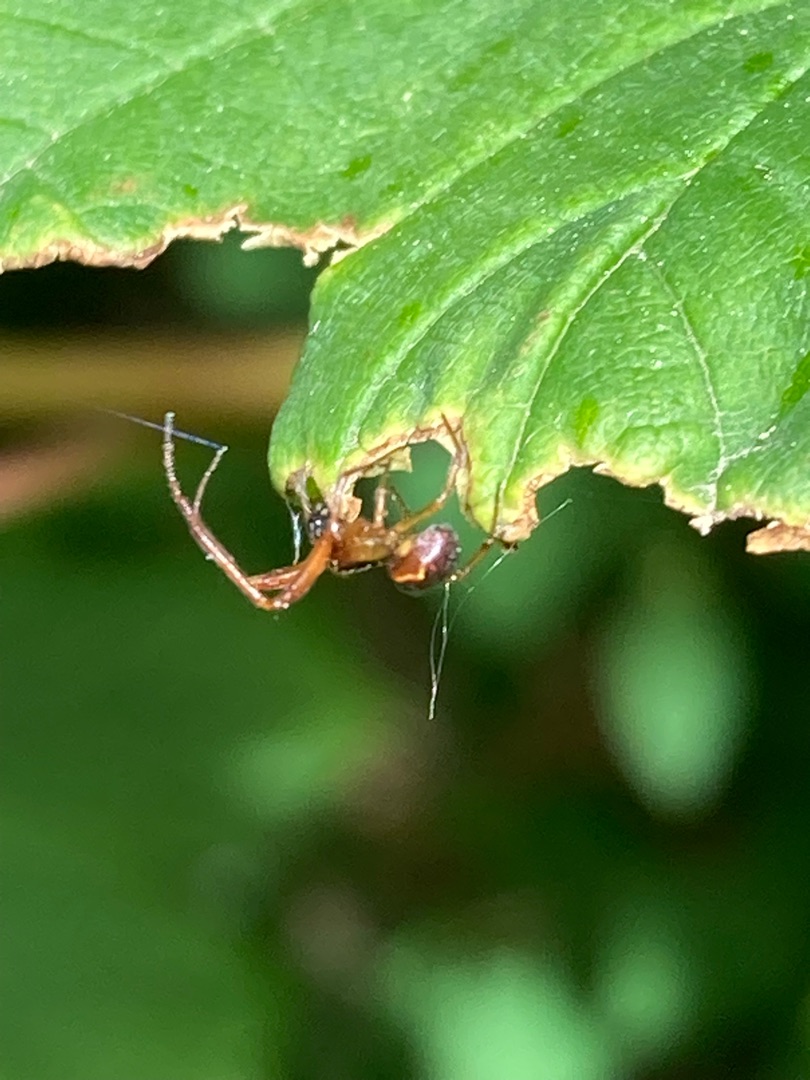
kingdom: Animalia
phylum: Arthropoda
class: Arachnida
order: Araneae
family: Theridiidae
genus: Anelosimus
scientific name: Anelosimus vittatus
